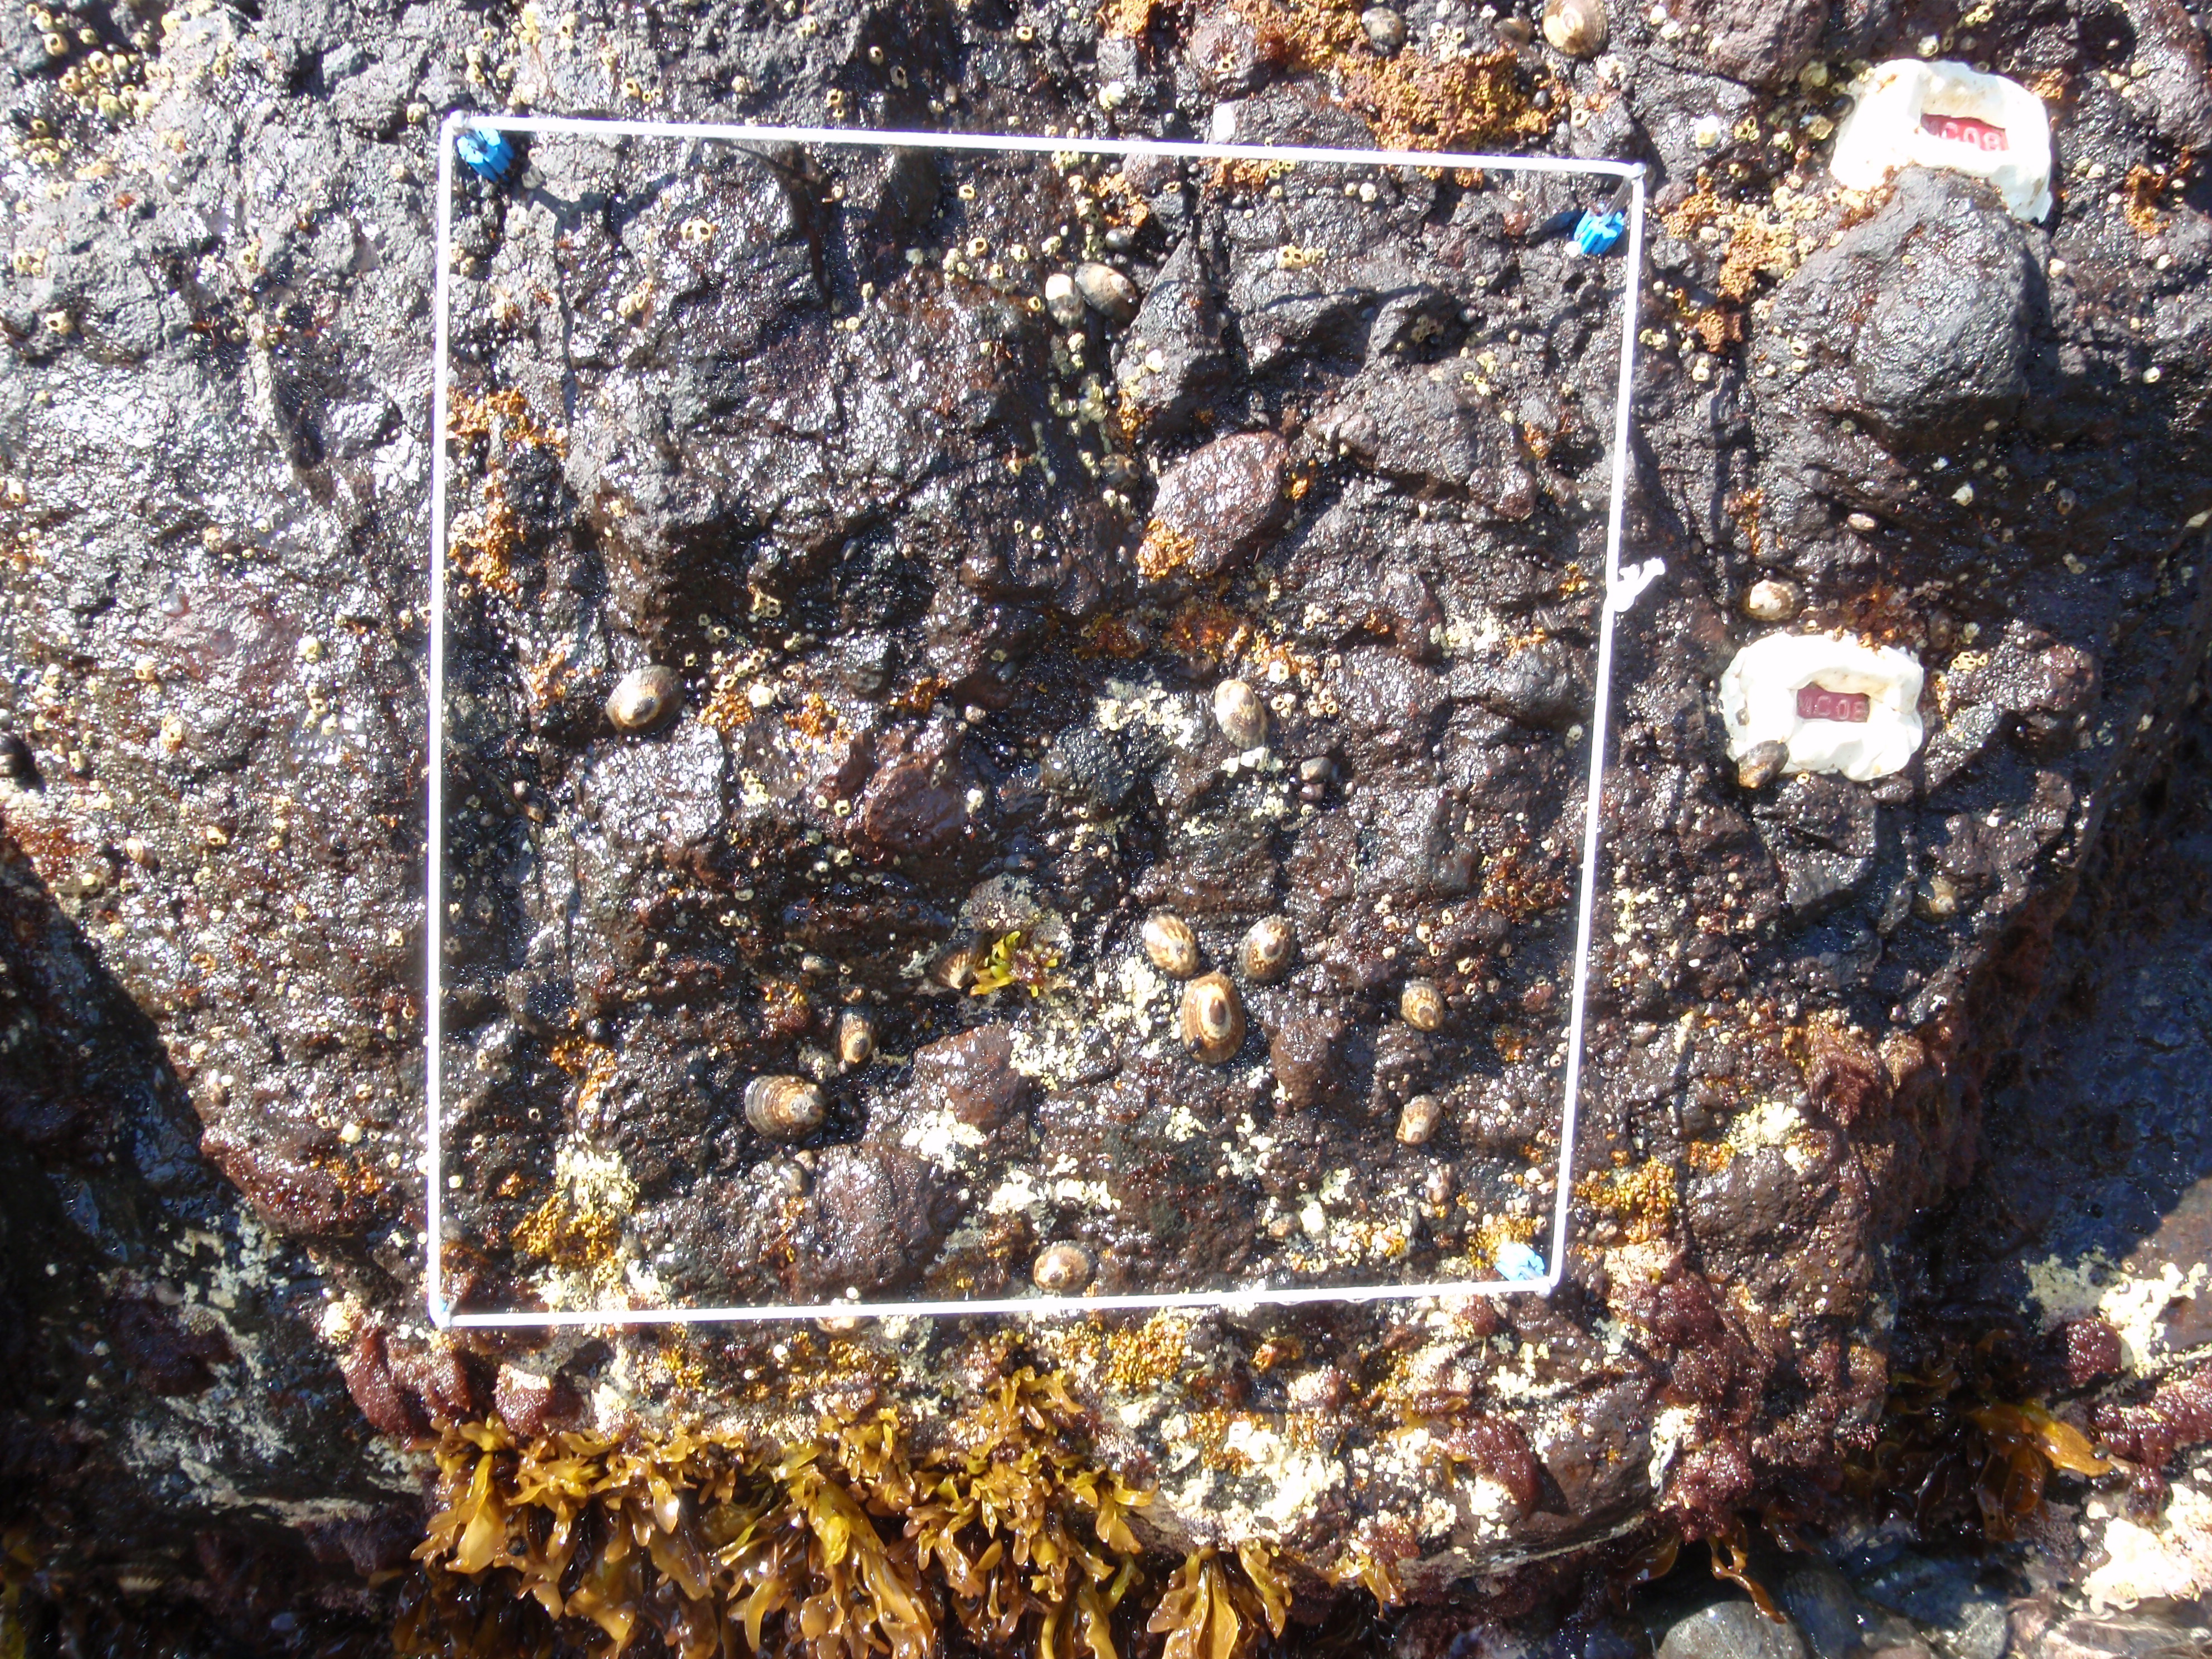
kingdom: Plantae
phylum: Rhodophyta
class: Florideophyceae
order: Corallinales
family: Corallinaceae
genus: Corallina
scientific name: Corallina pilulifera
